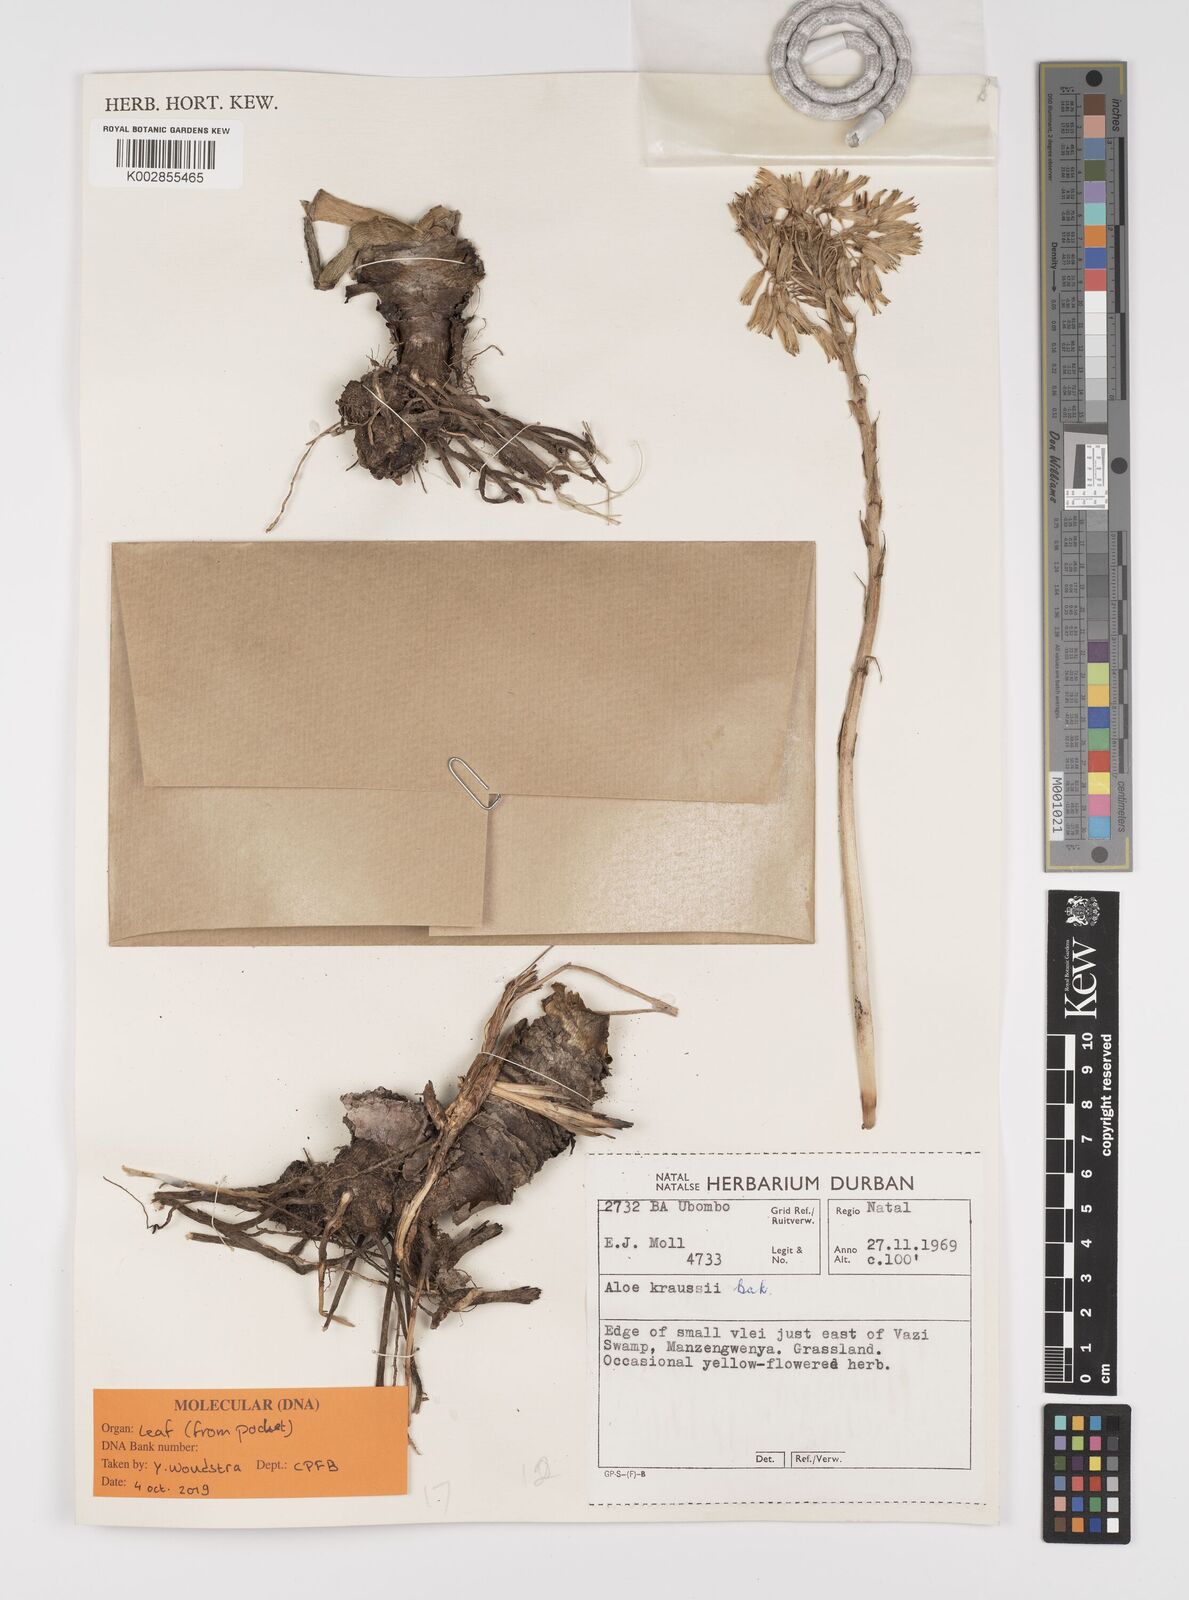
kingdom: Plantae
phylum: Tracheophyta
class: Liliopsida
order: Asparagales
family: Asphodelaceae
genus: Aloe
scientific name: Aloe kraussii
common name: Broad-leaved yellow grass aloe
